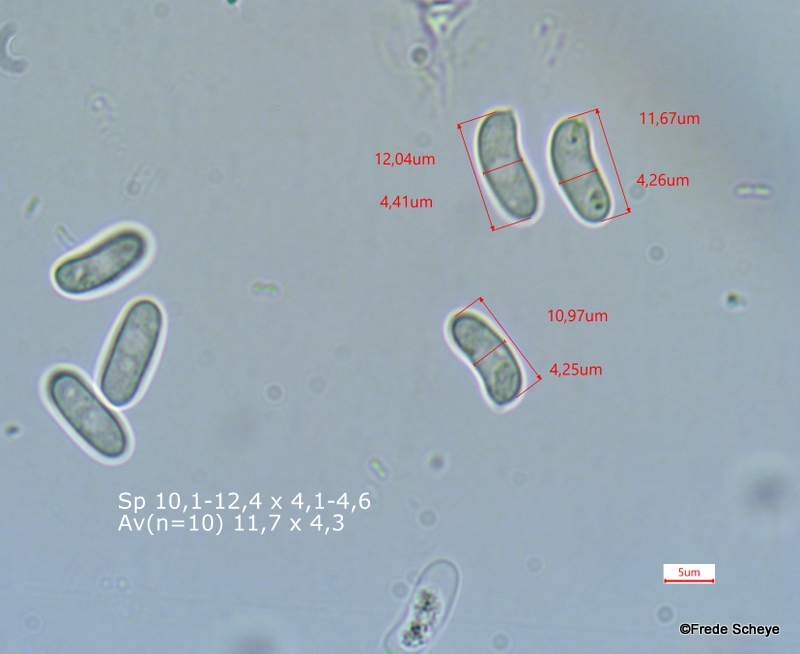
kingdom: Fungi
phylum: Basidiomycota
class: Agaricomycetes
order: Russulales
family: Peniophoraceae
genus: Peniophora
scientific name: Peniophora lycii
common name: grynet voksskind
